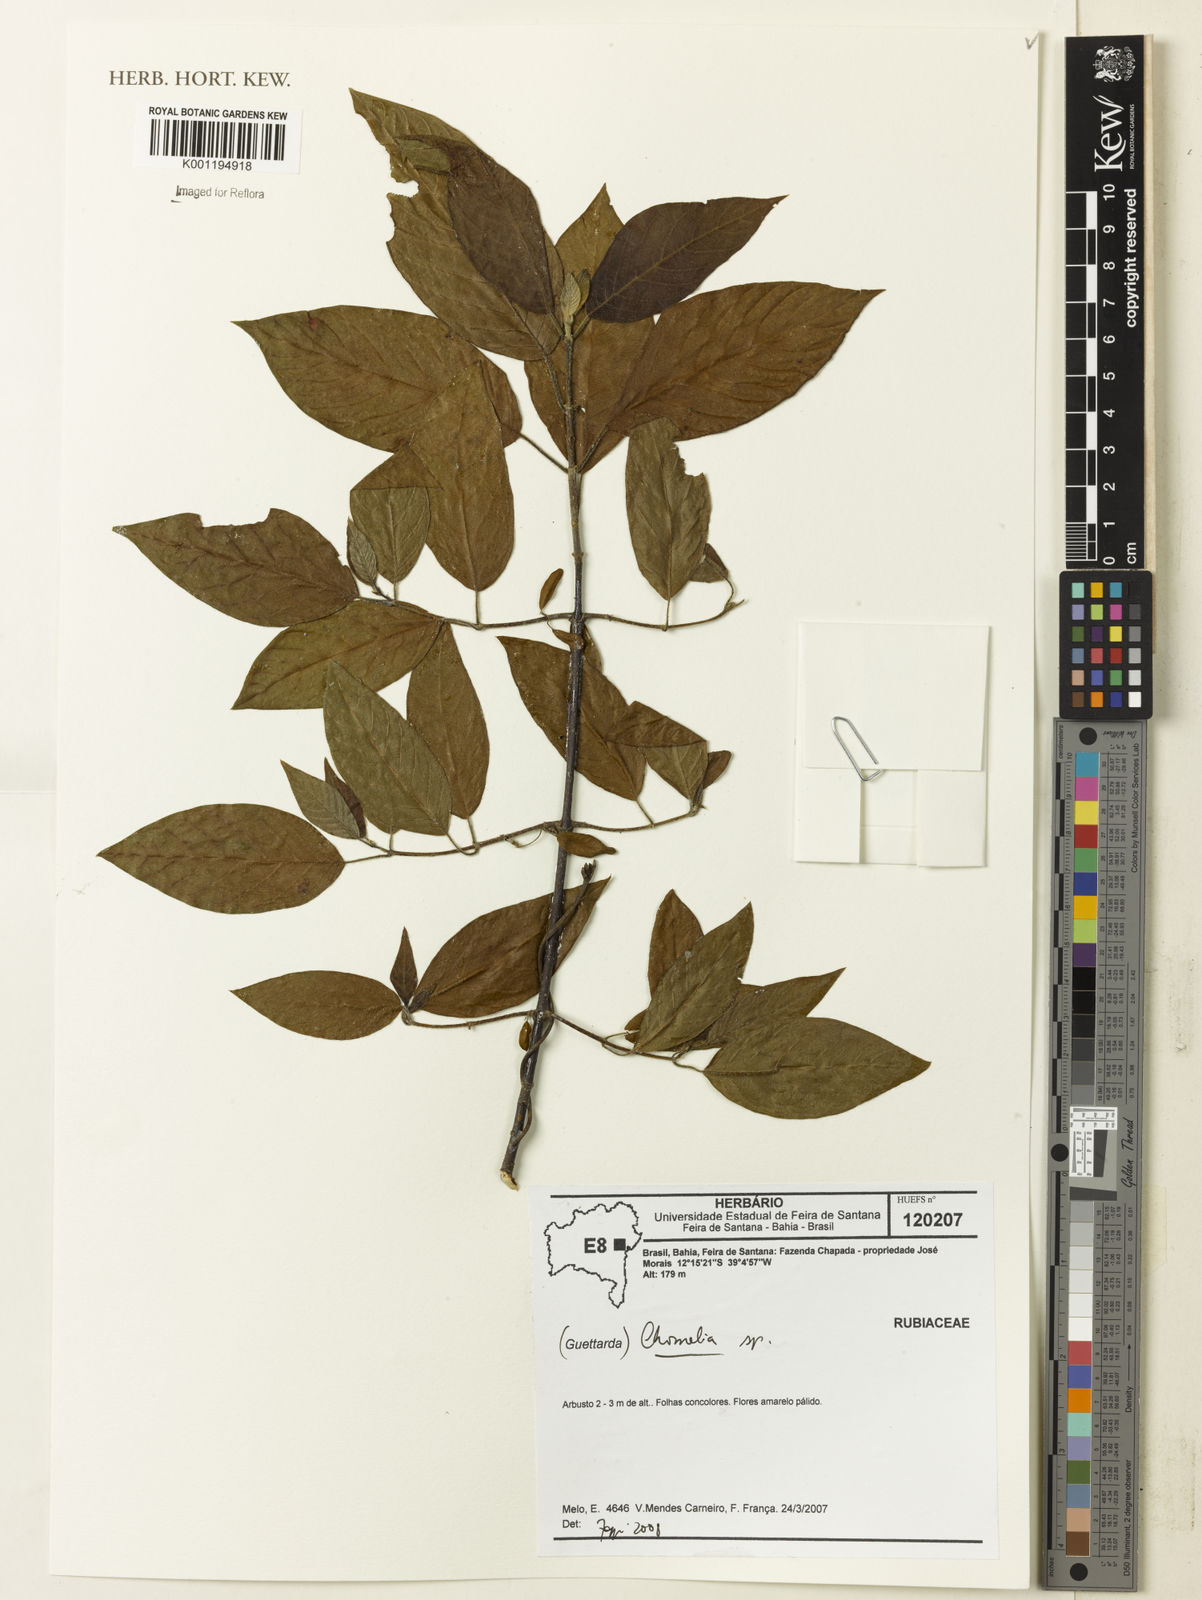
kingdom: Plantae
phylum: Tracheophyta
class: Magnoliopsida
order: Gentianales
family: Rubiaceae
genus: Chomelia
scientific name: Chomelia
